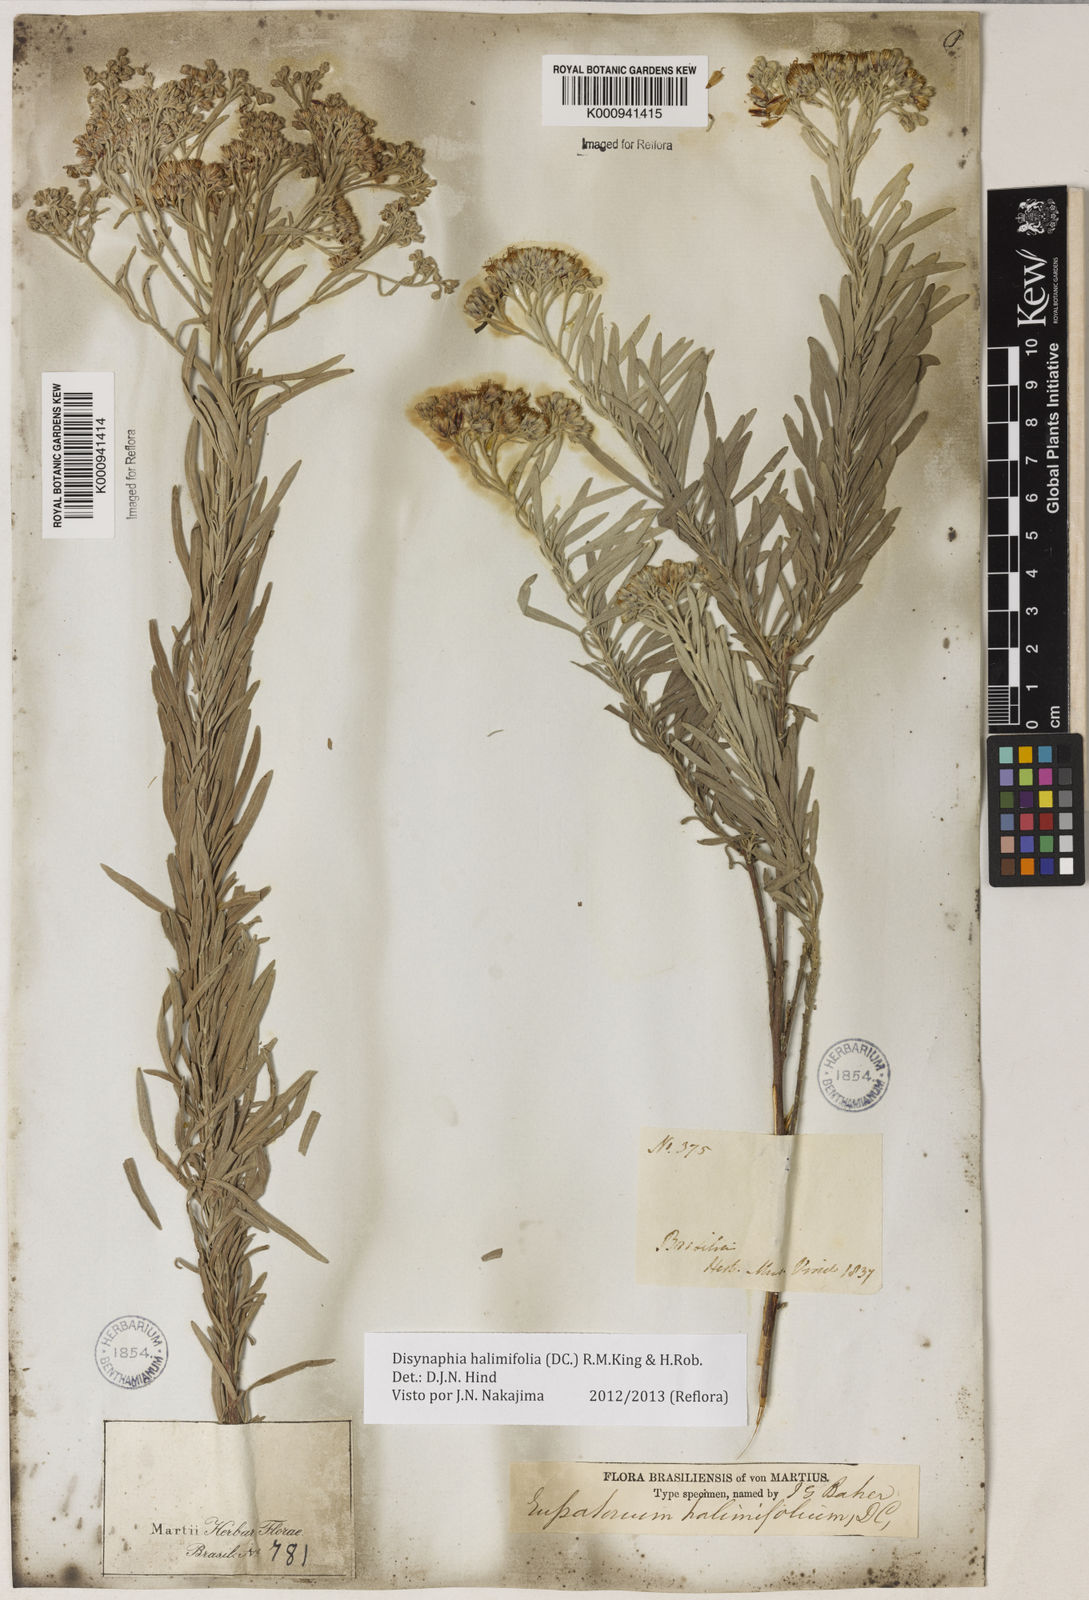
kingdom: Plantae
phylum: Tracheophyta
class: Magnoliopsida
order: Asterales
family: Asteraceae
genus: Disynaphia
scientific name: Disynaphia halimifolia
